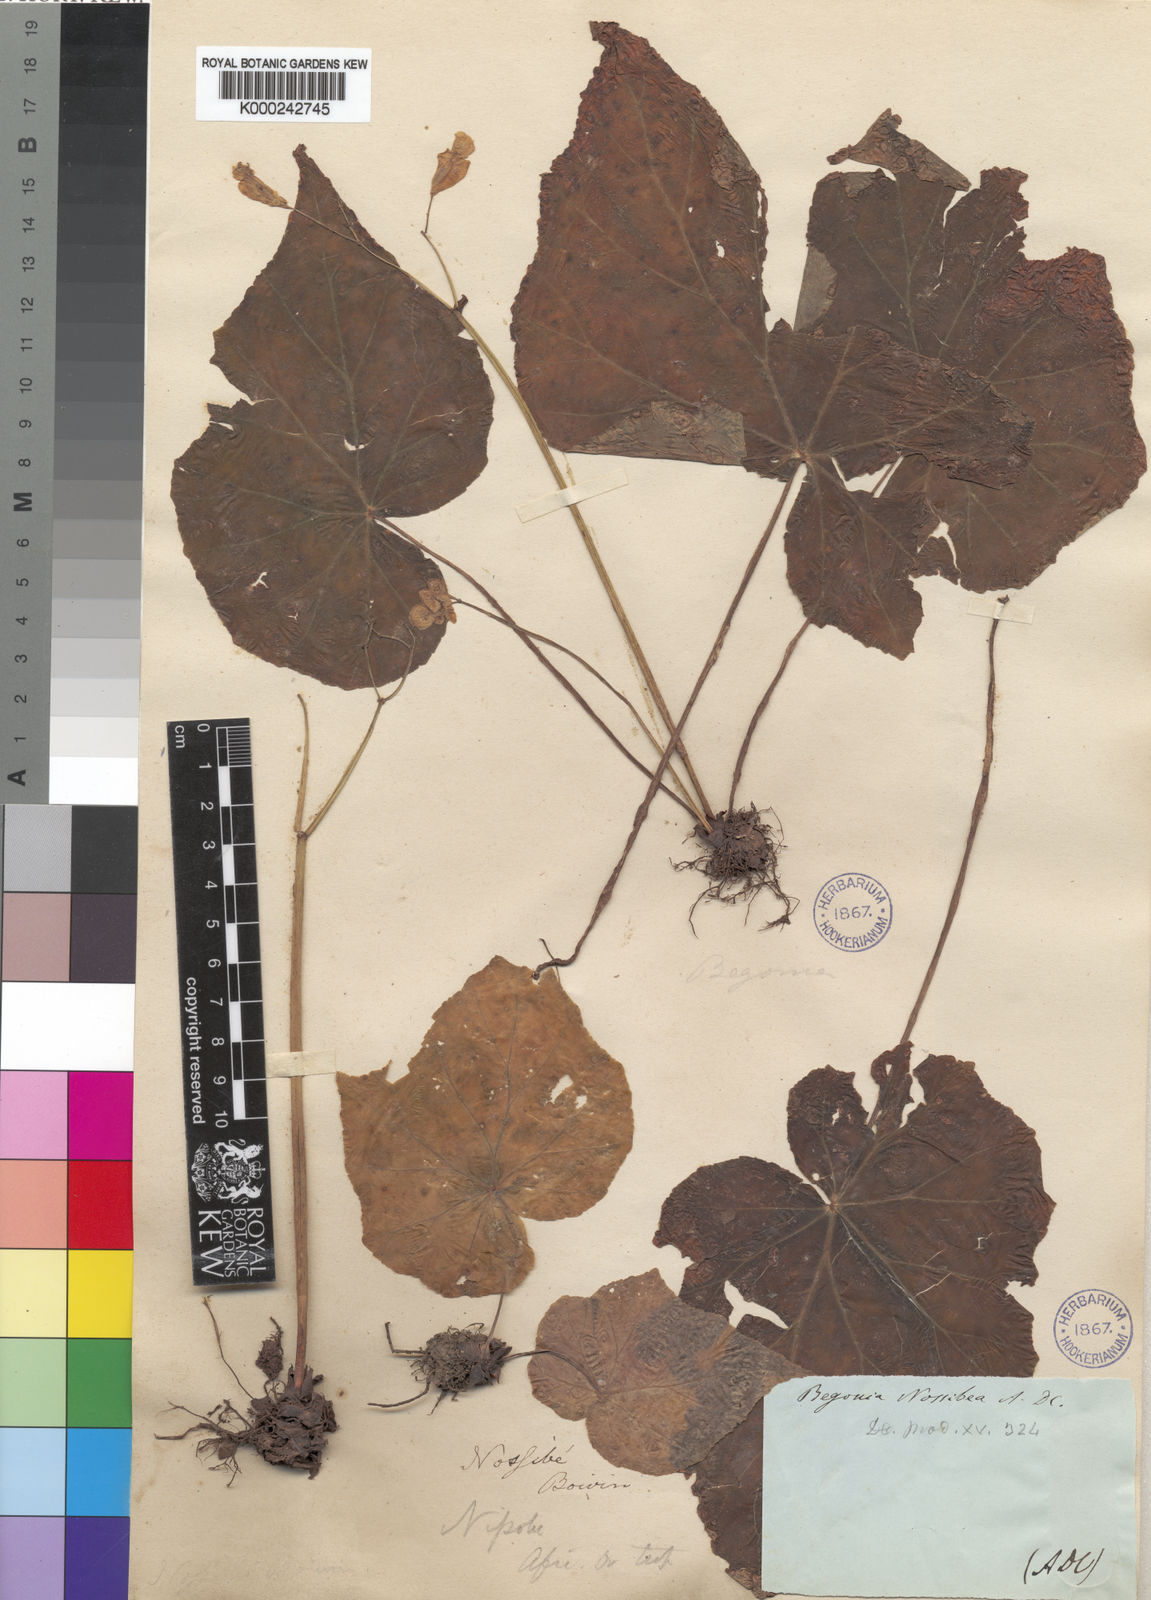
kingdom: Plantae
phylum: Tracheophyta
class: Magnoliopsida
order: Cucurbitales
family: Begoniaceae
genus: Begonia
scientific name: Begonia nossibea
